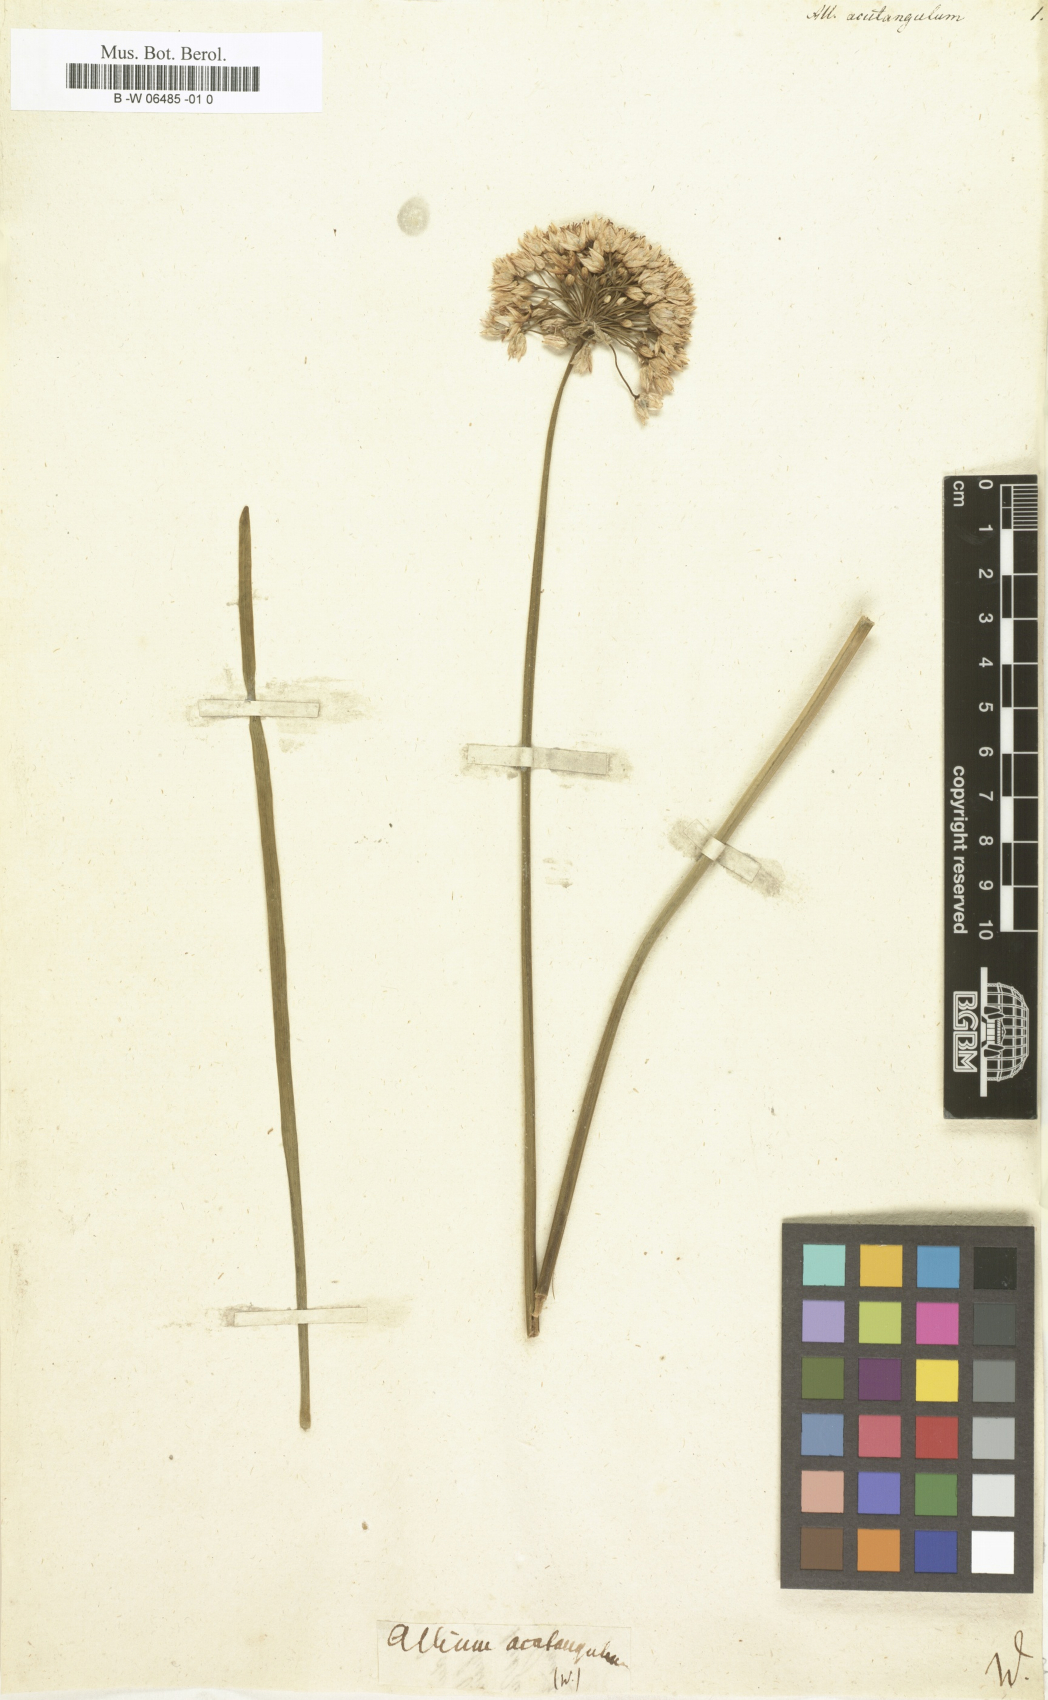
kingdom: Plantae
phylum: Tracheophyta
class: Liliopsida
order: Asparagales
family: Amaryllidaceae
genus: Allium
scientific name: Allium
